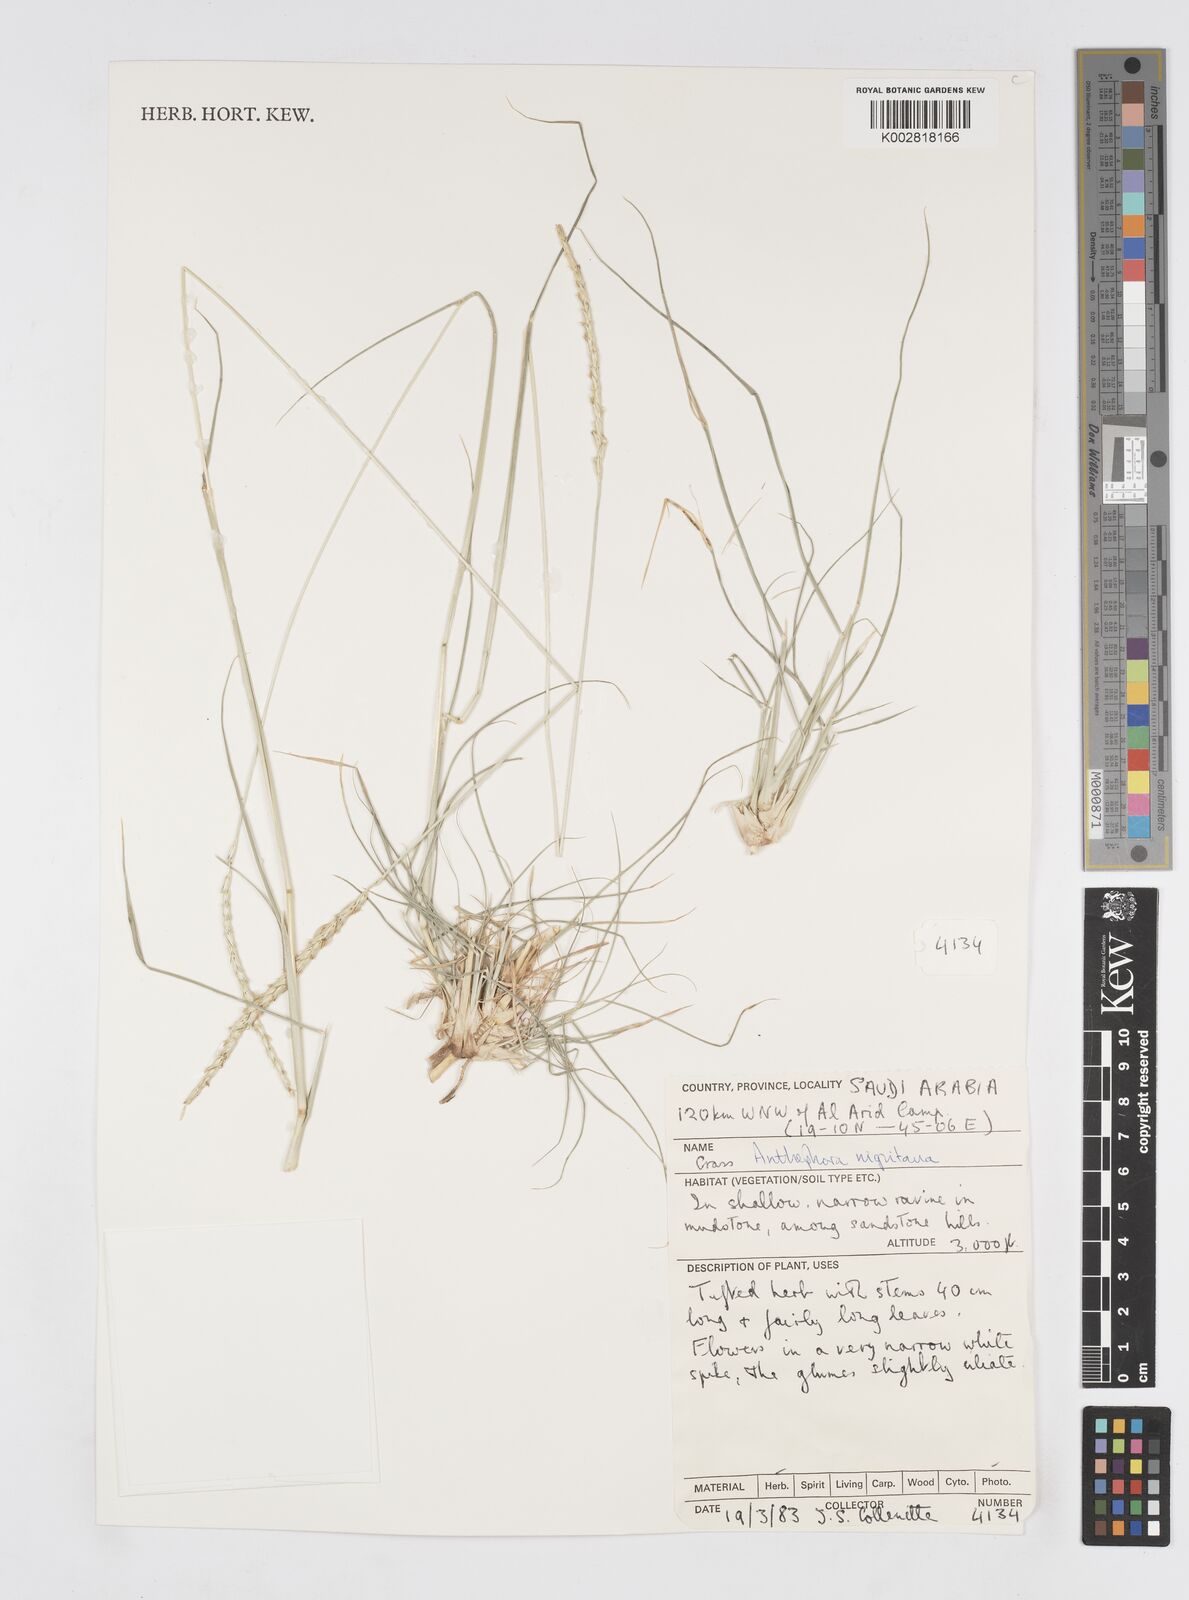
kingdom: Plantae
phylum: Tracheophyta
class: Liliopsida
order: Poales
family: Poaceae
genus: Anthephora
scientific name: Anthephora nigritana
